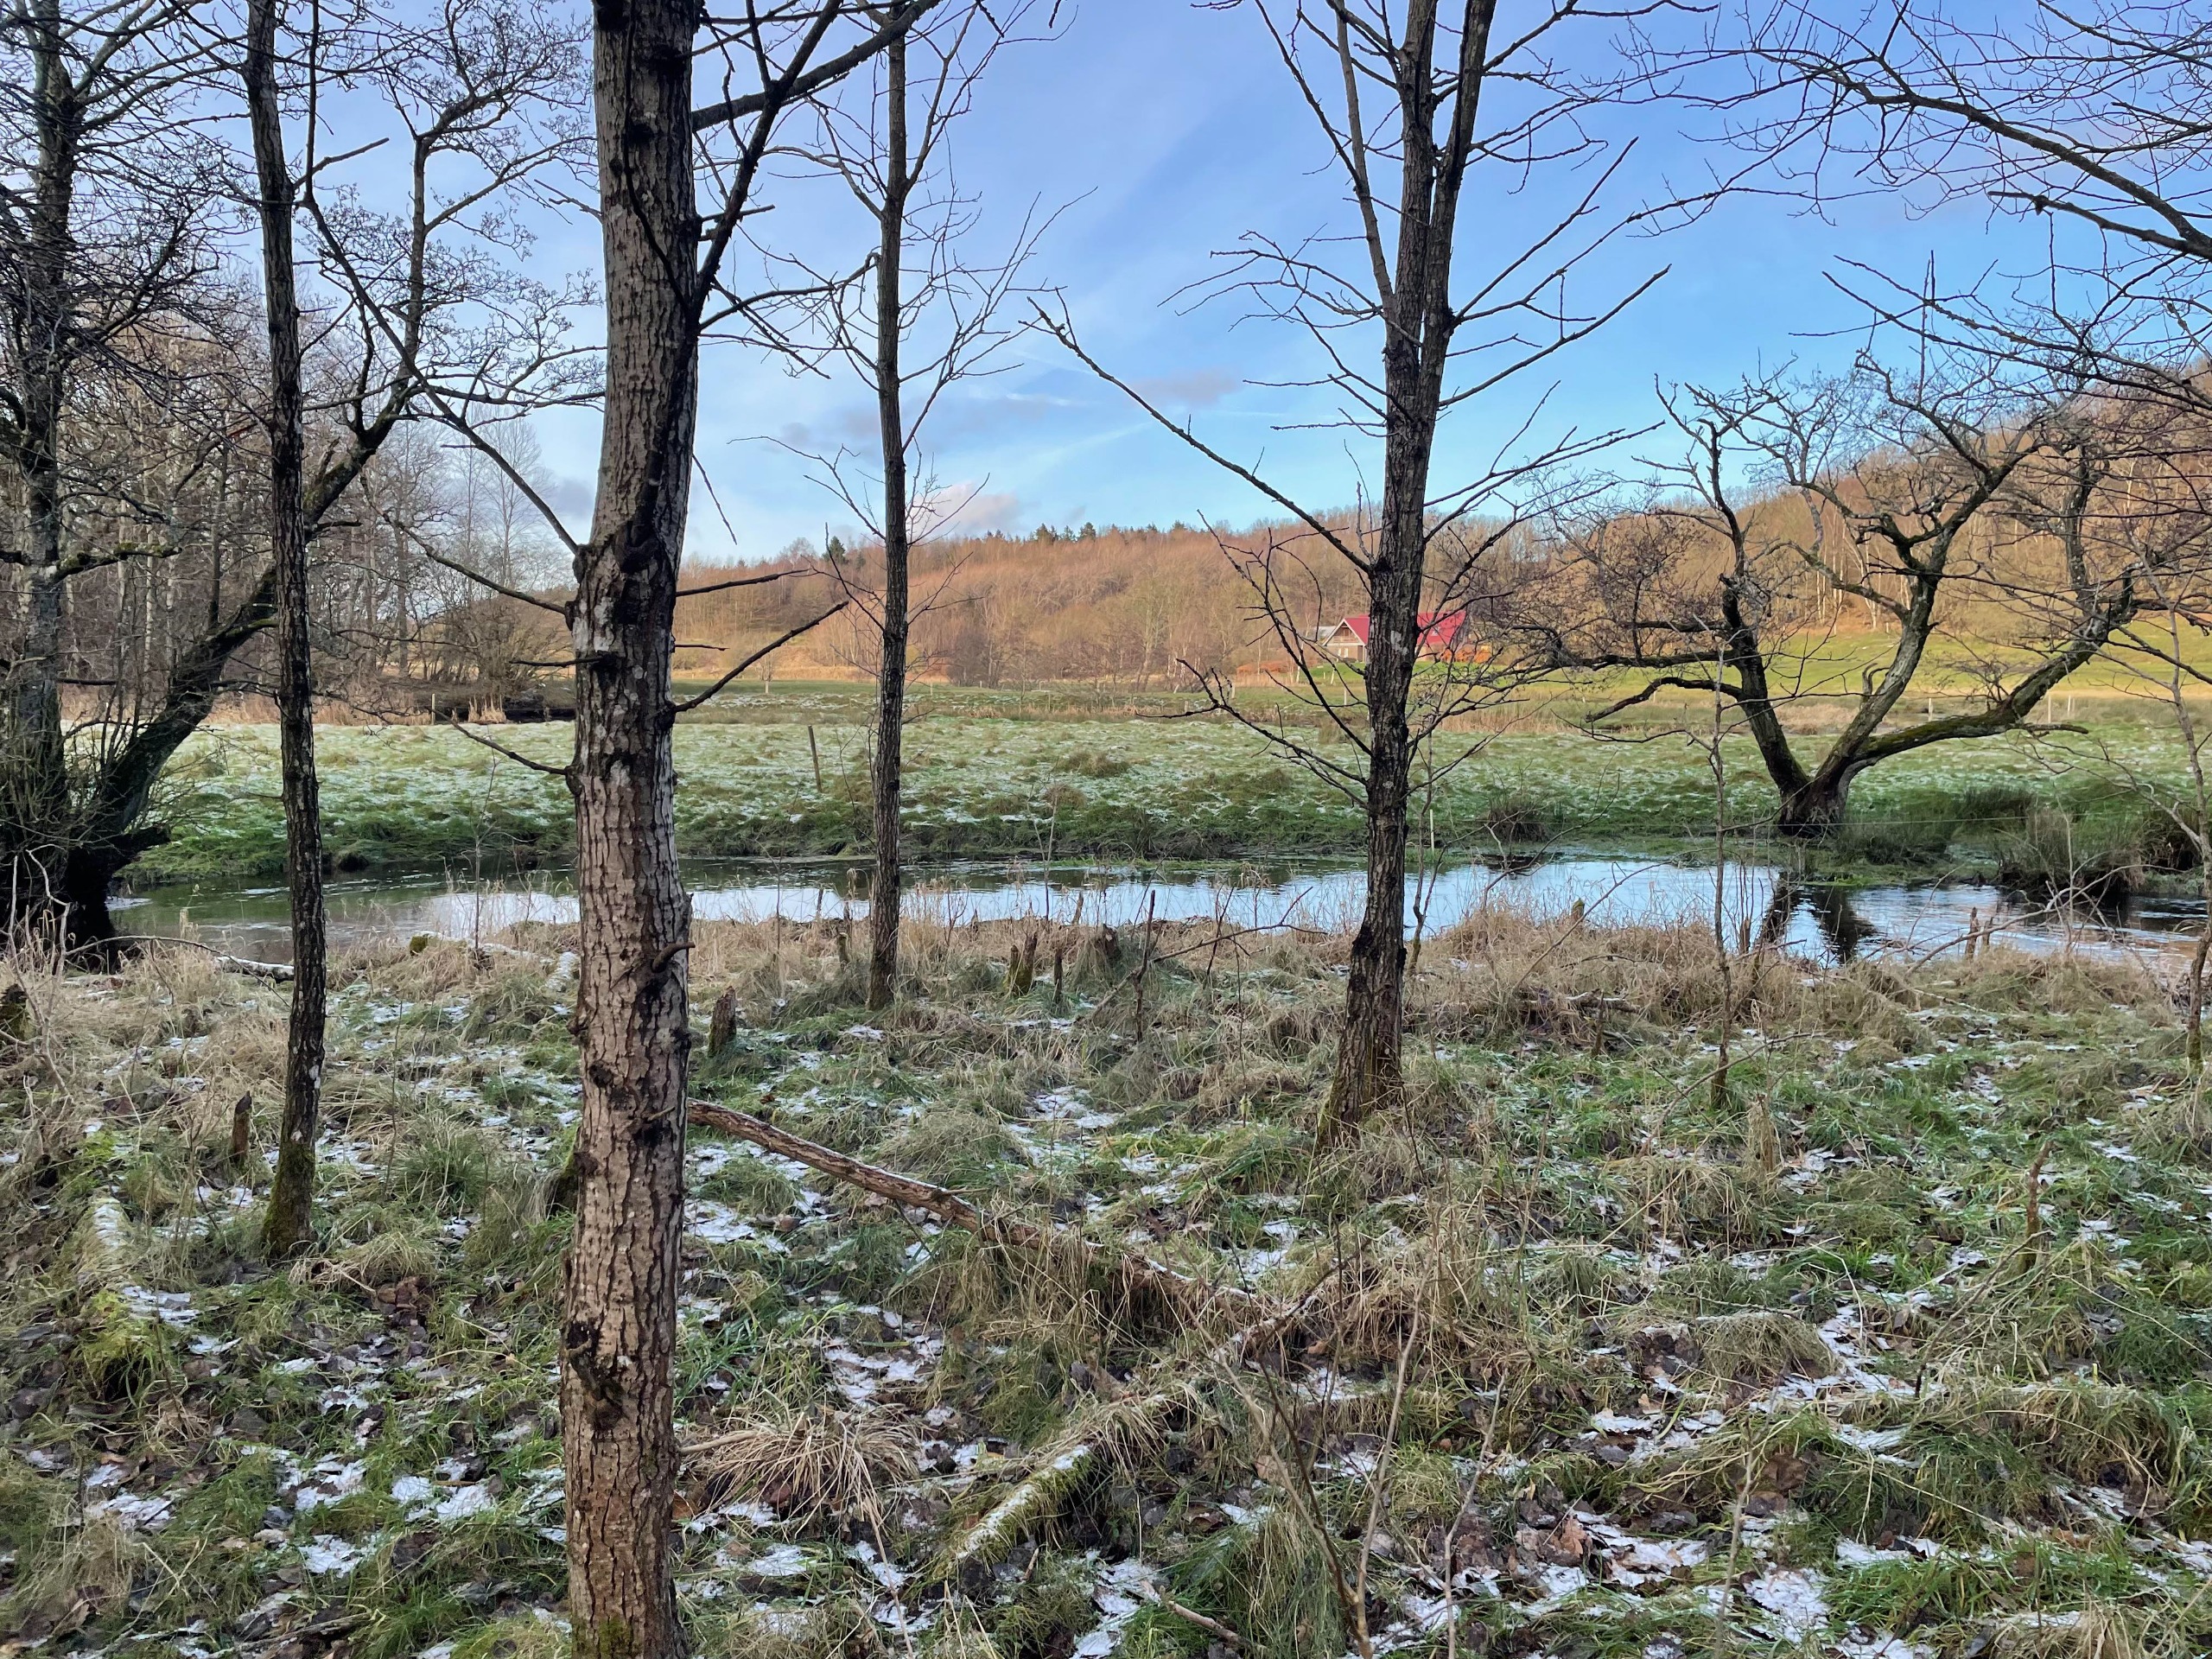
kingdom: Animalia
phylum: Chordata
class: Mammalia
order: Rodentia
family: Castoridae
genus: Castor
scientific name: Castor fiber
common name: Bæver
